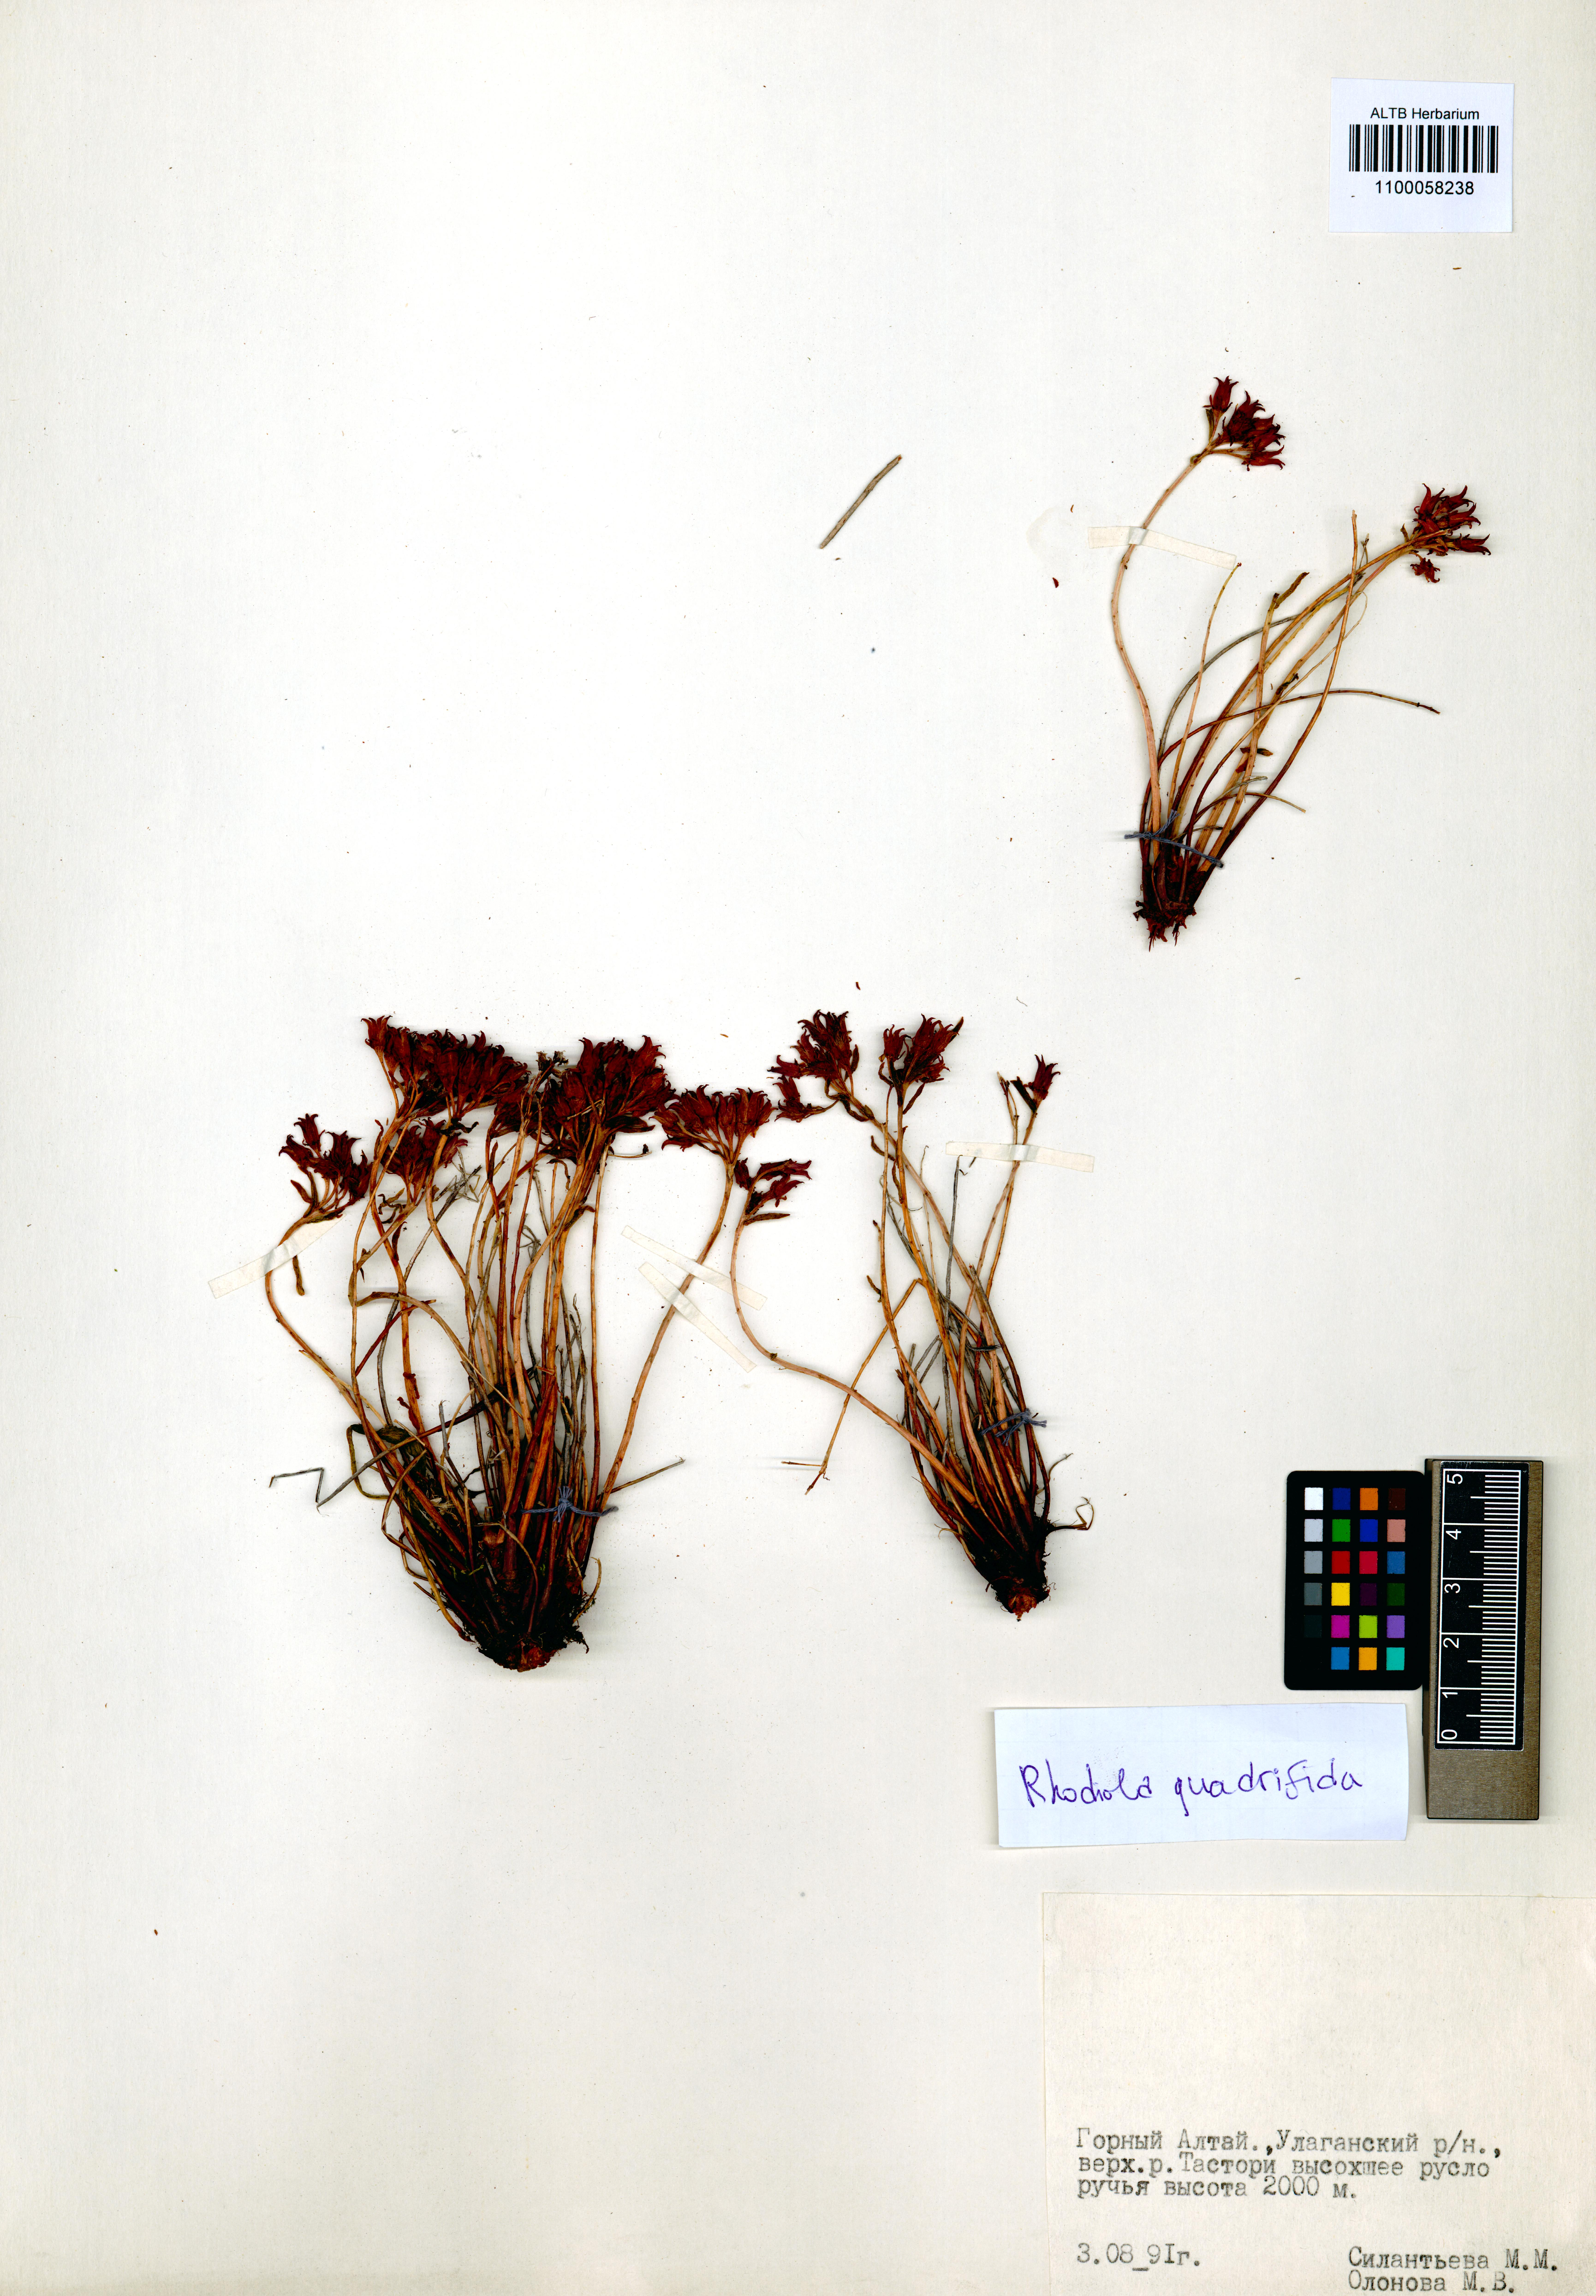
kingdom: Plantae
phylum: Tracheophyta
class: Magnoliopsida
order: Saxifragales
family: Crassulaceae
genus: Rhodiola
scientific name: Rhodiola quadrifida
